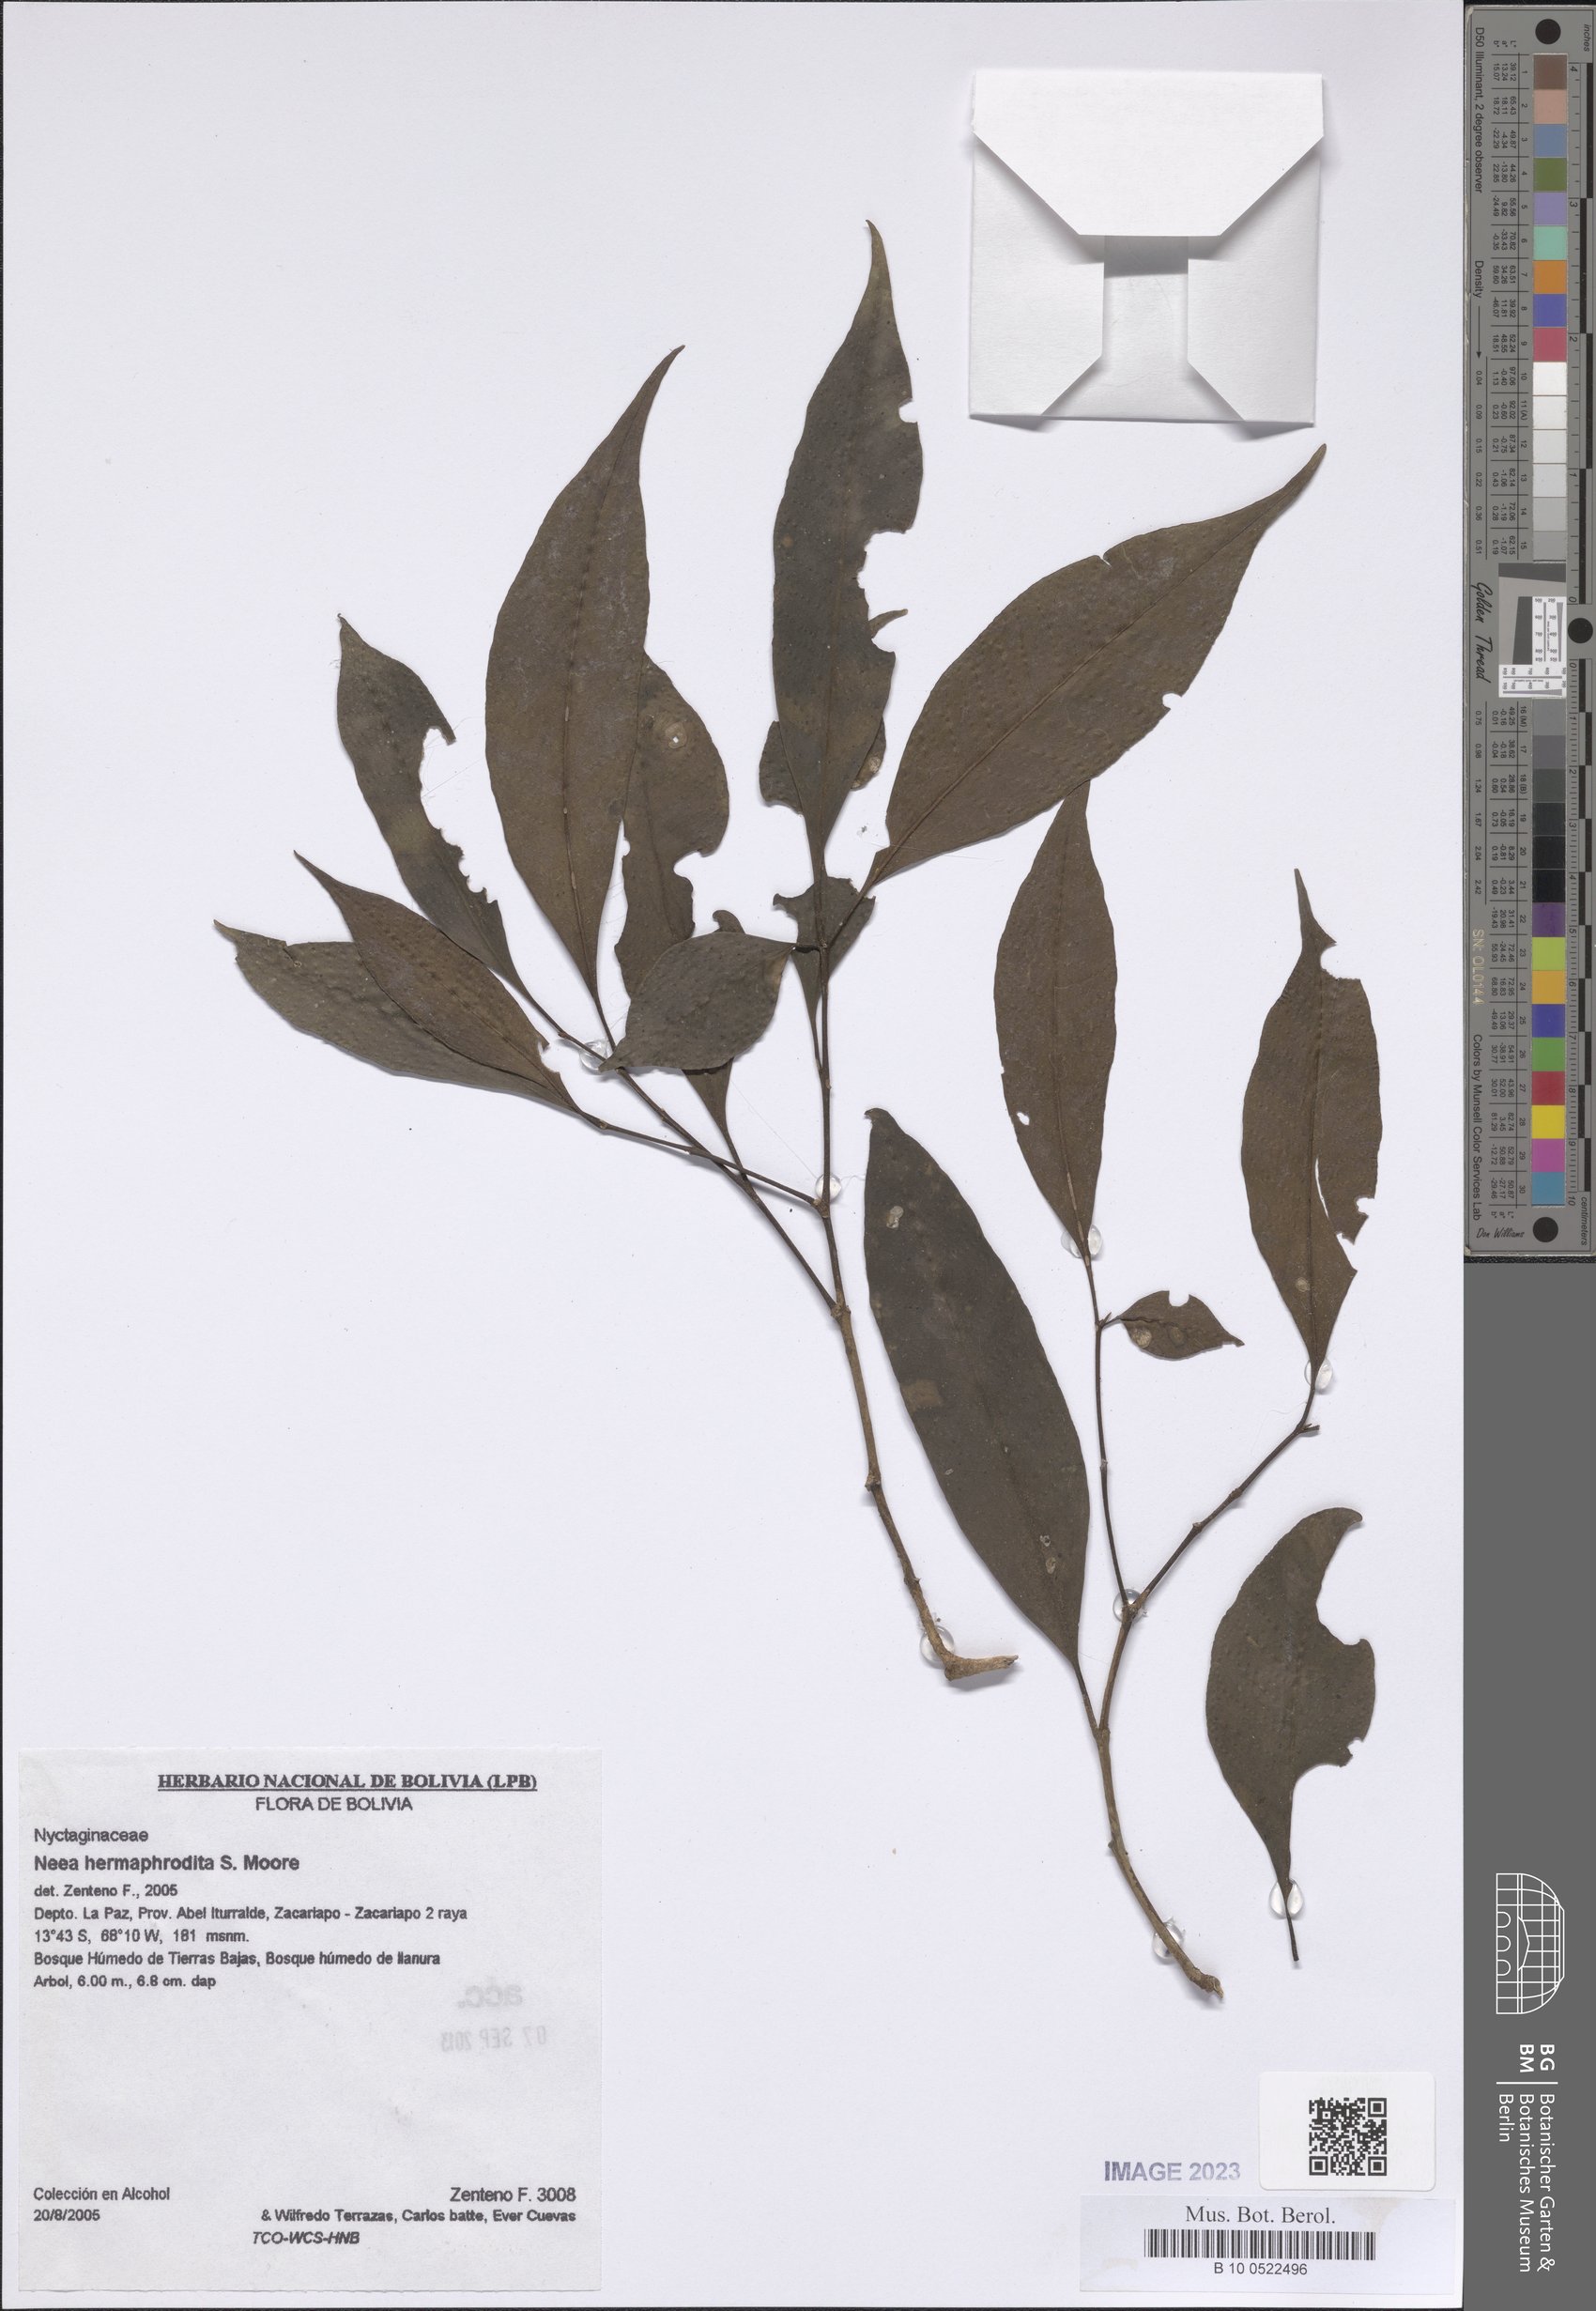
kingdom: Plantae
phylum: Tracheophyta
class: Magnoliopsida
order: Caryophyllales
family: Nyctaginaceae
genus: Neea
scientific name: Neea hermaphrodita
